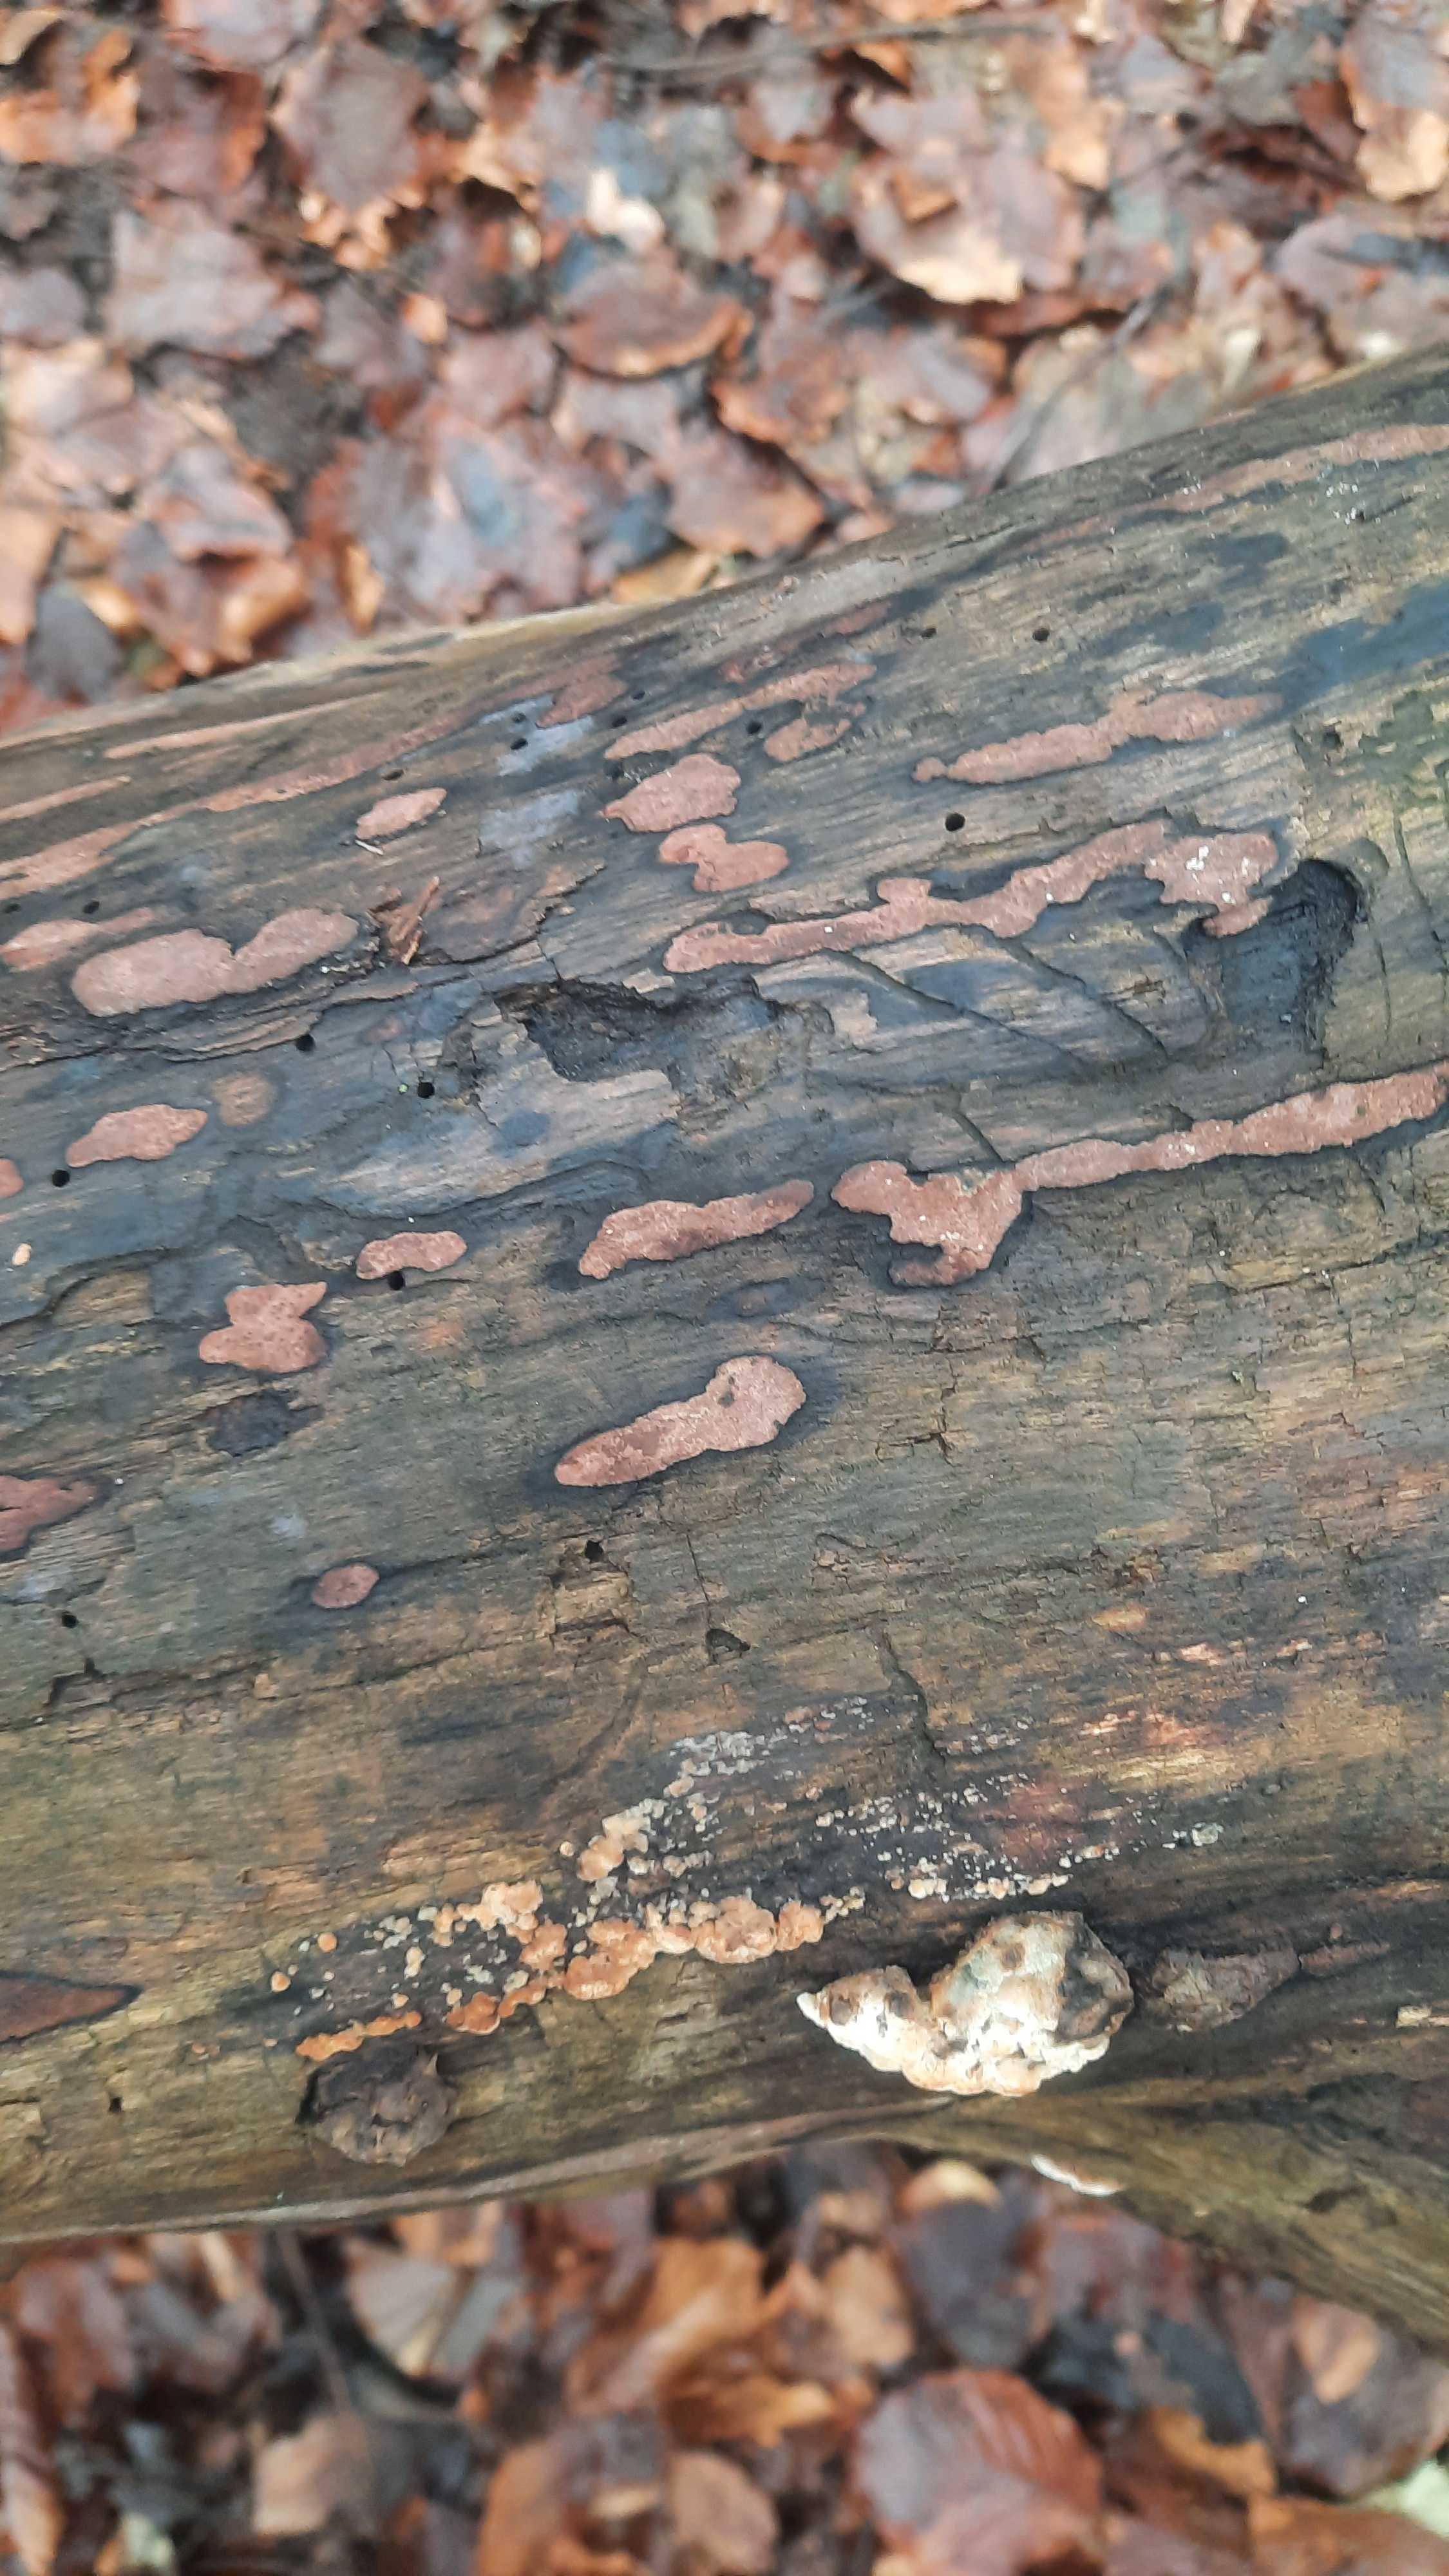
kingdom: Fungi
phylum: Ascomycota
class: Sordariomycetes
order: Xylariales
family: Hypoxylaceae
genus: Hypoxylon
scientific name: Hypoxylon petriniae
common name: nedsænket kulbær
